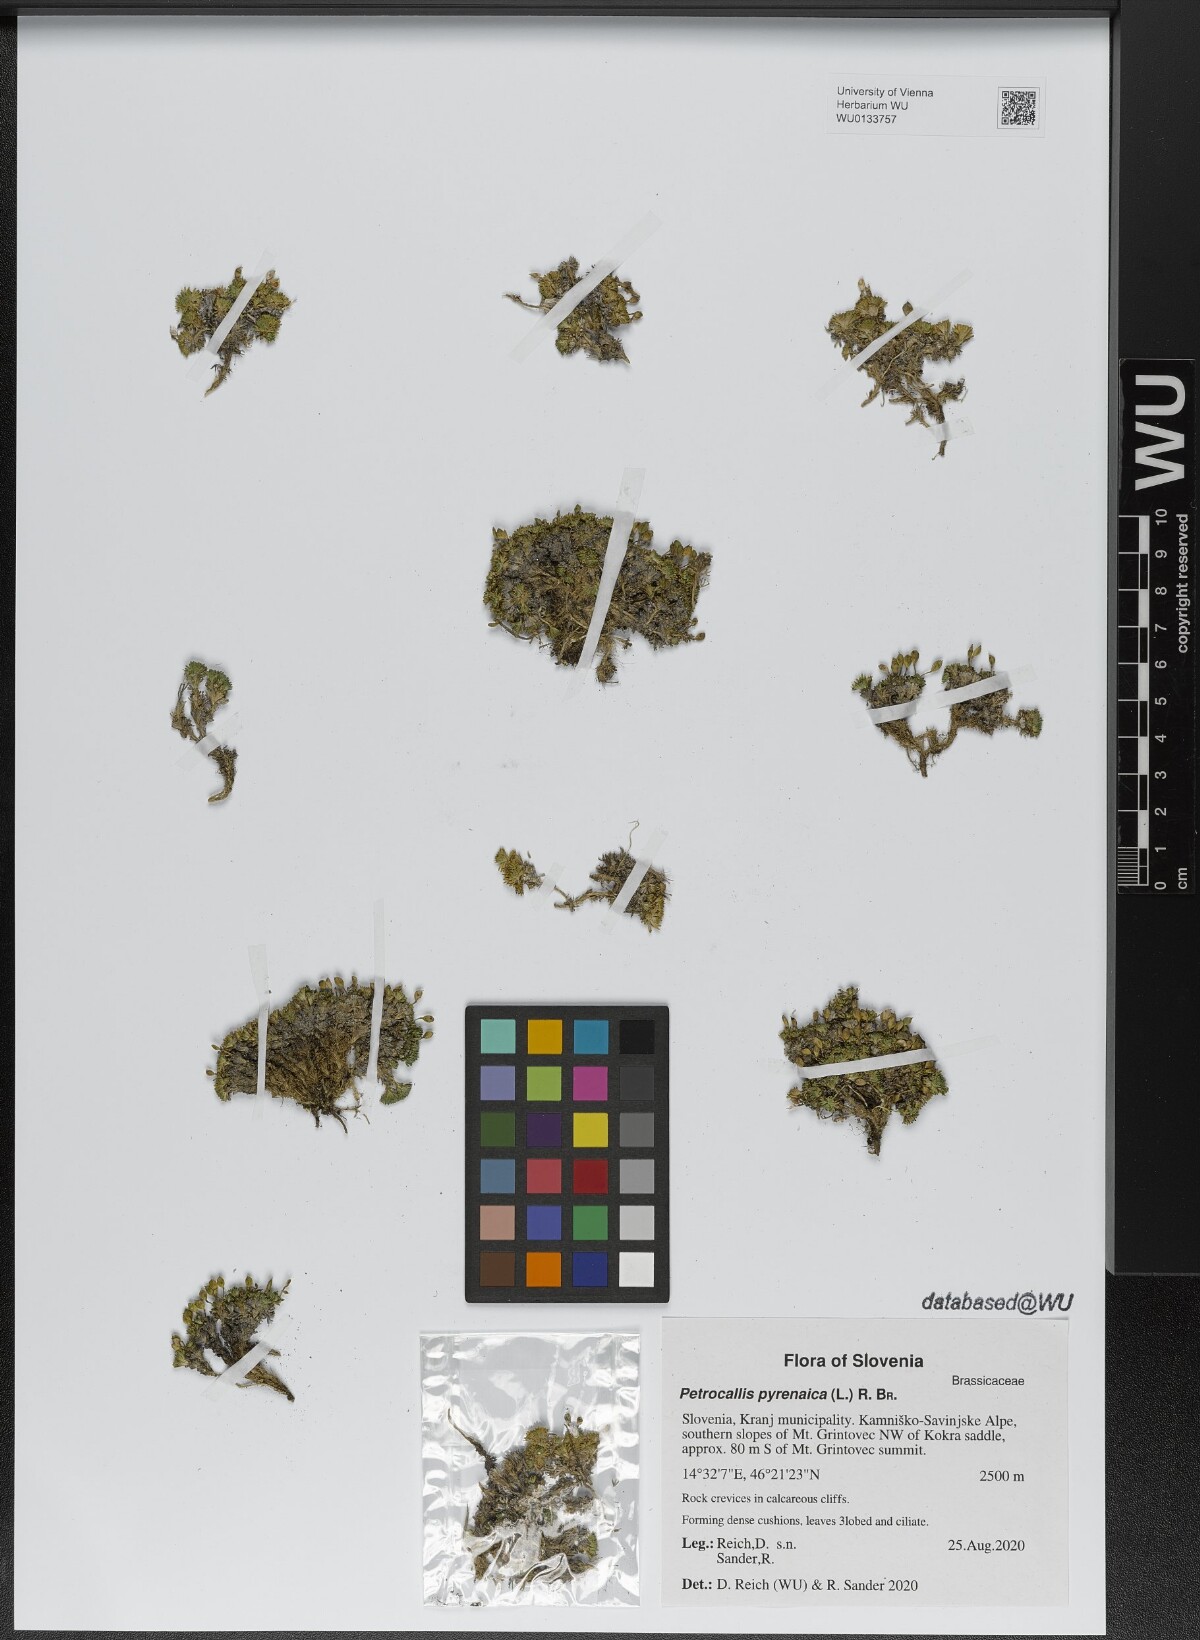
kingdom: Plantae
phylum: Tracheophyta
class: Magnoliopsida
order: Brassicales
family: Brassicaceae
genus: Petrocallis
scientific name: Petrocallis pyrenaica
